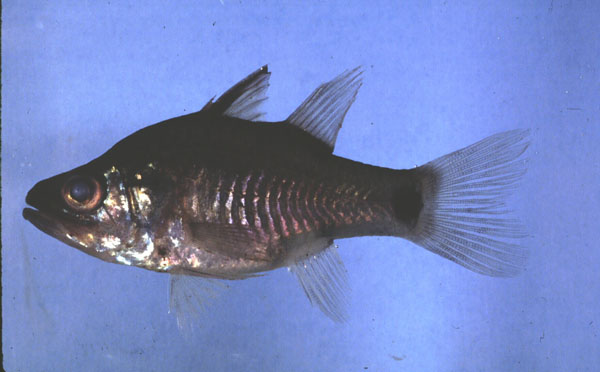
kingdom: Animalia
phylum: Chordata
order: Perciformes
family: Apogonidae
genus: Yarica
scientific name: Yarica hyalosoma
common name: Hump-backed cardinalfish
